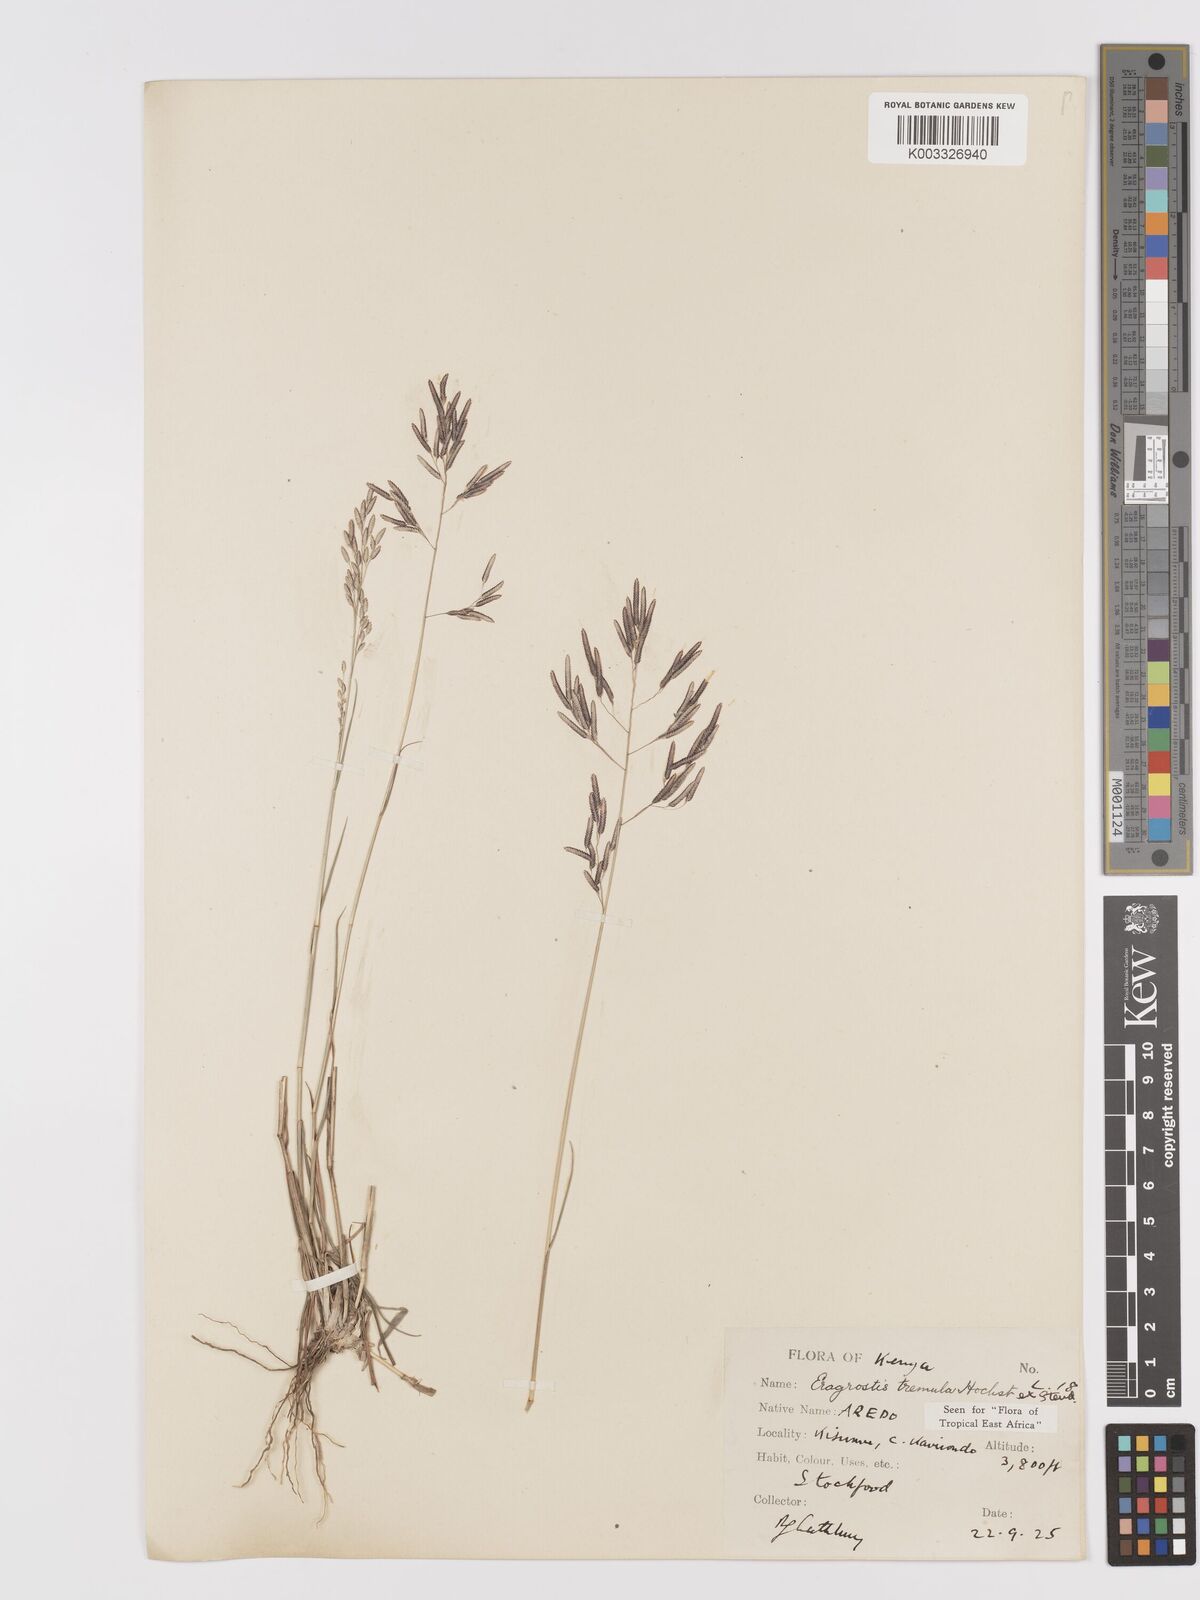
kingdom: Plantae
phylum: Tracheophyta
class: Liliopsida
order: Poales
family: Poaceae
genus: Eragrostis
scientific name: Eragrostis tremula
